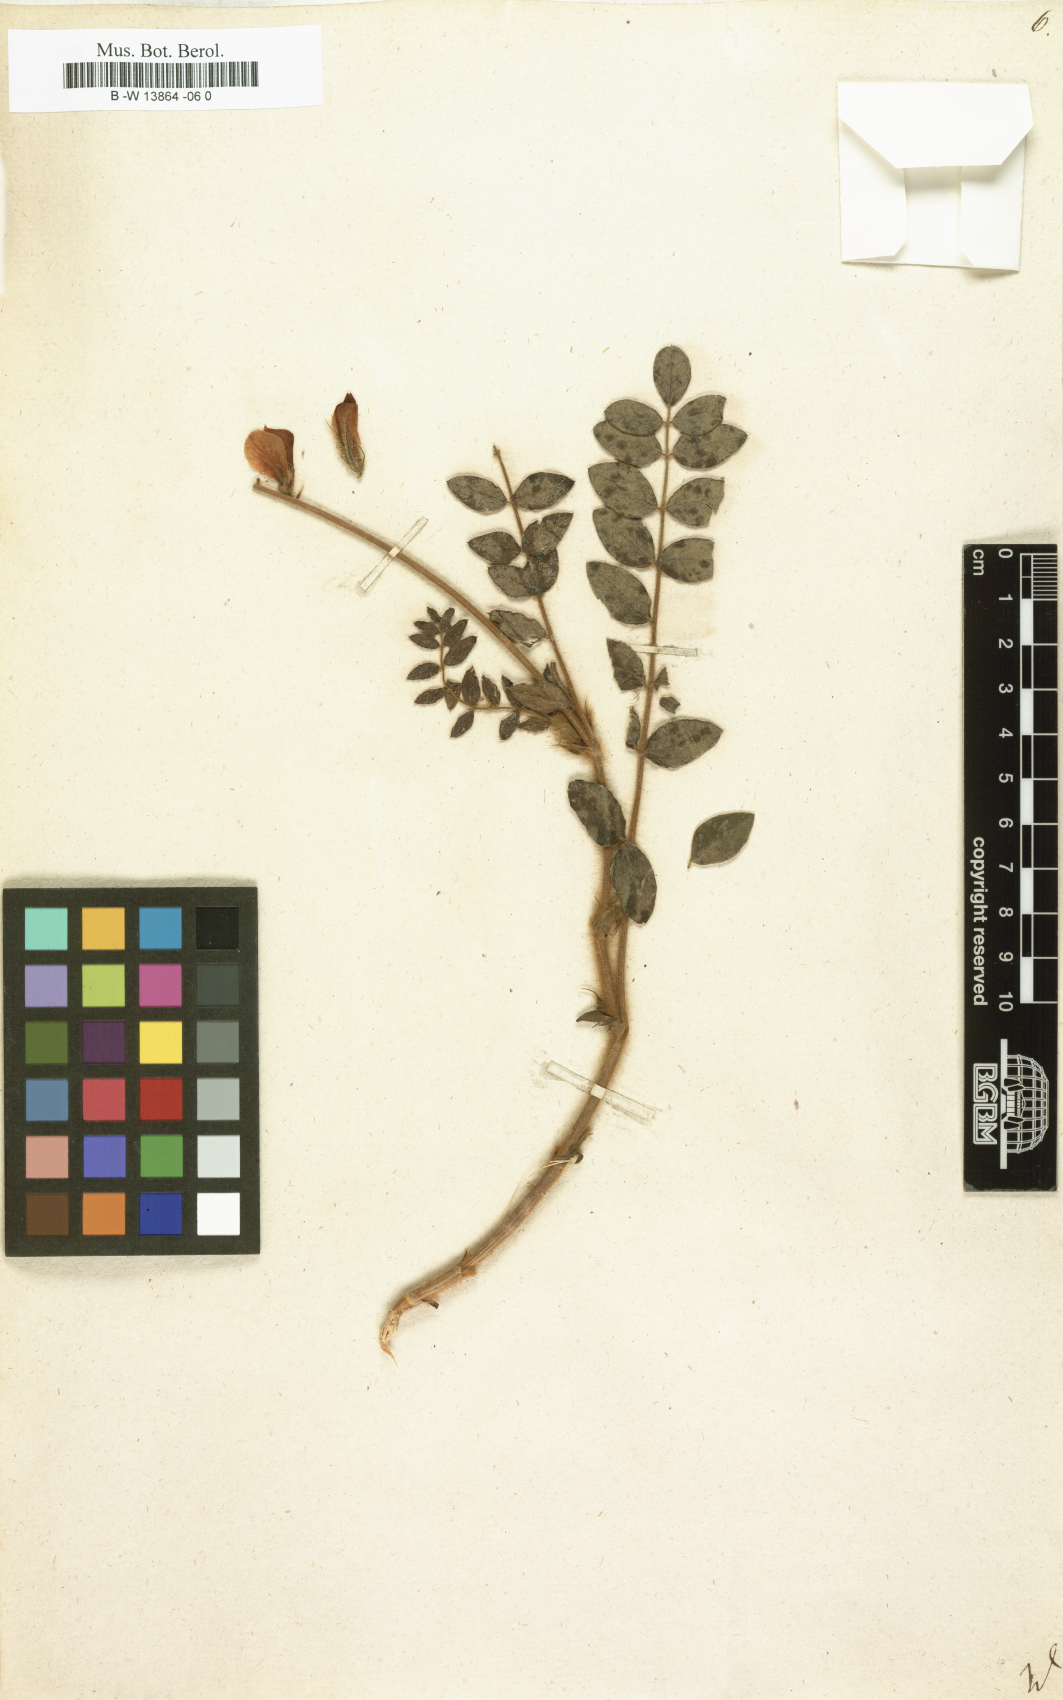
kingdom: Plantae
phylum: Tracheophyta
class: Magnoliopsida
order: Fabales
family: Fabaceae
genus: Hedysarum
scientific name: Hedysarum
